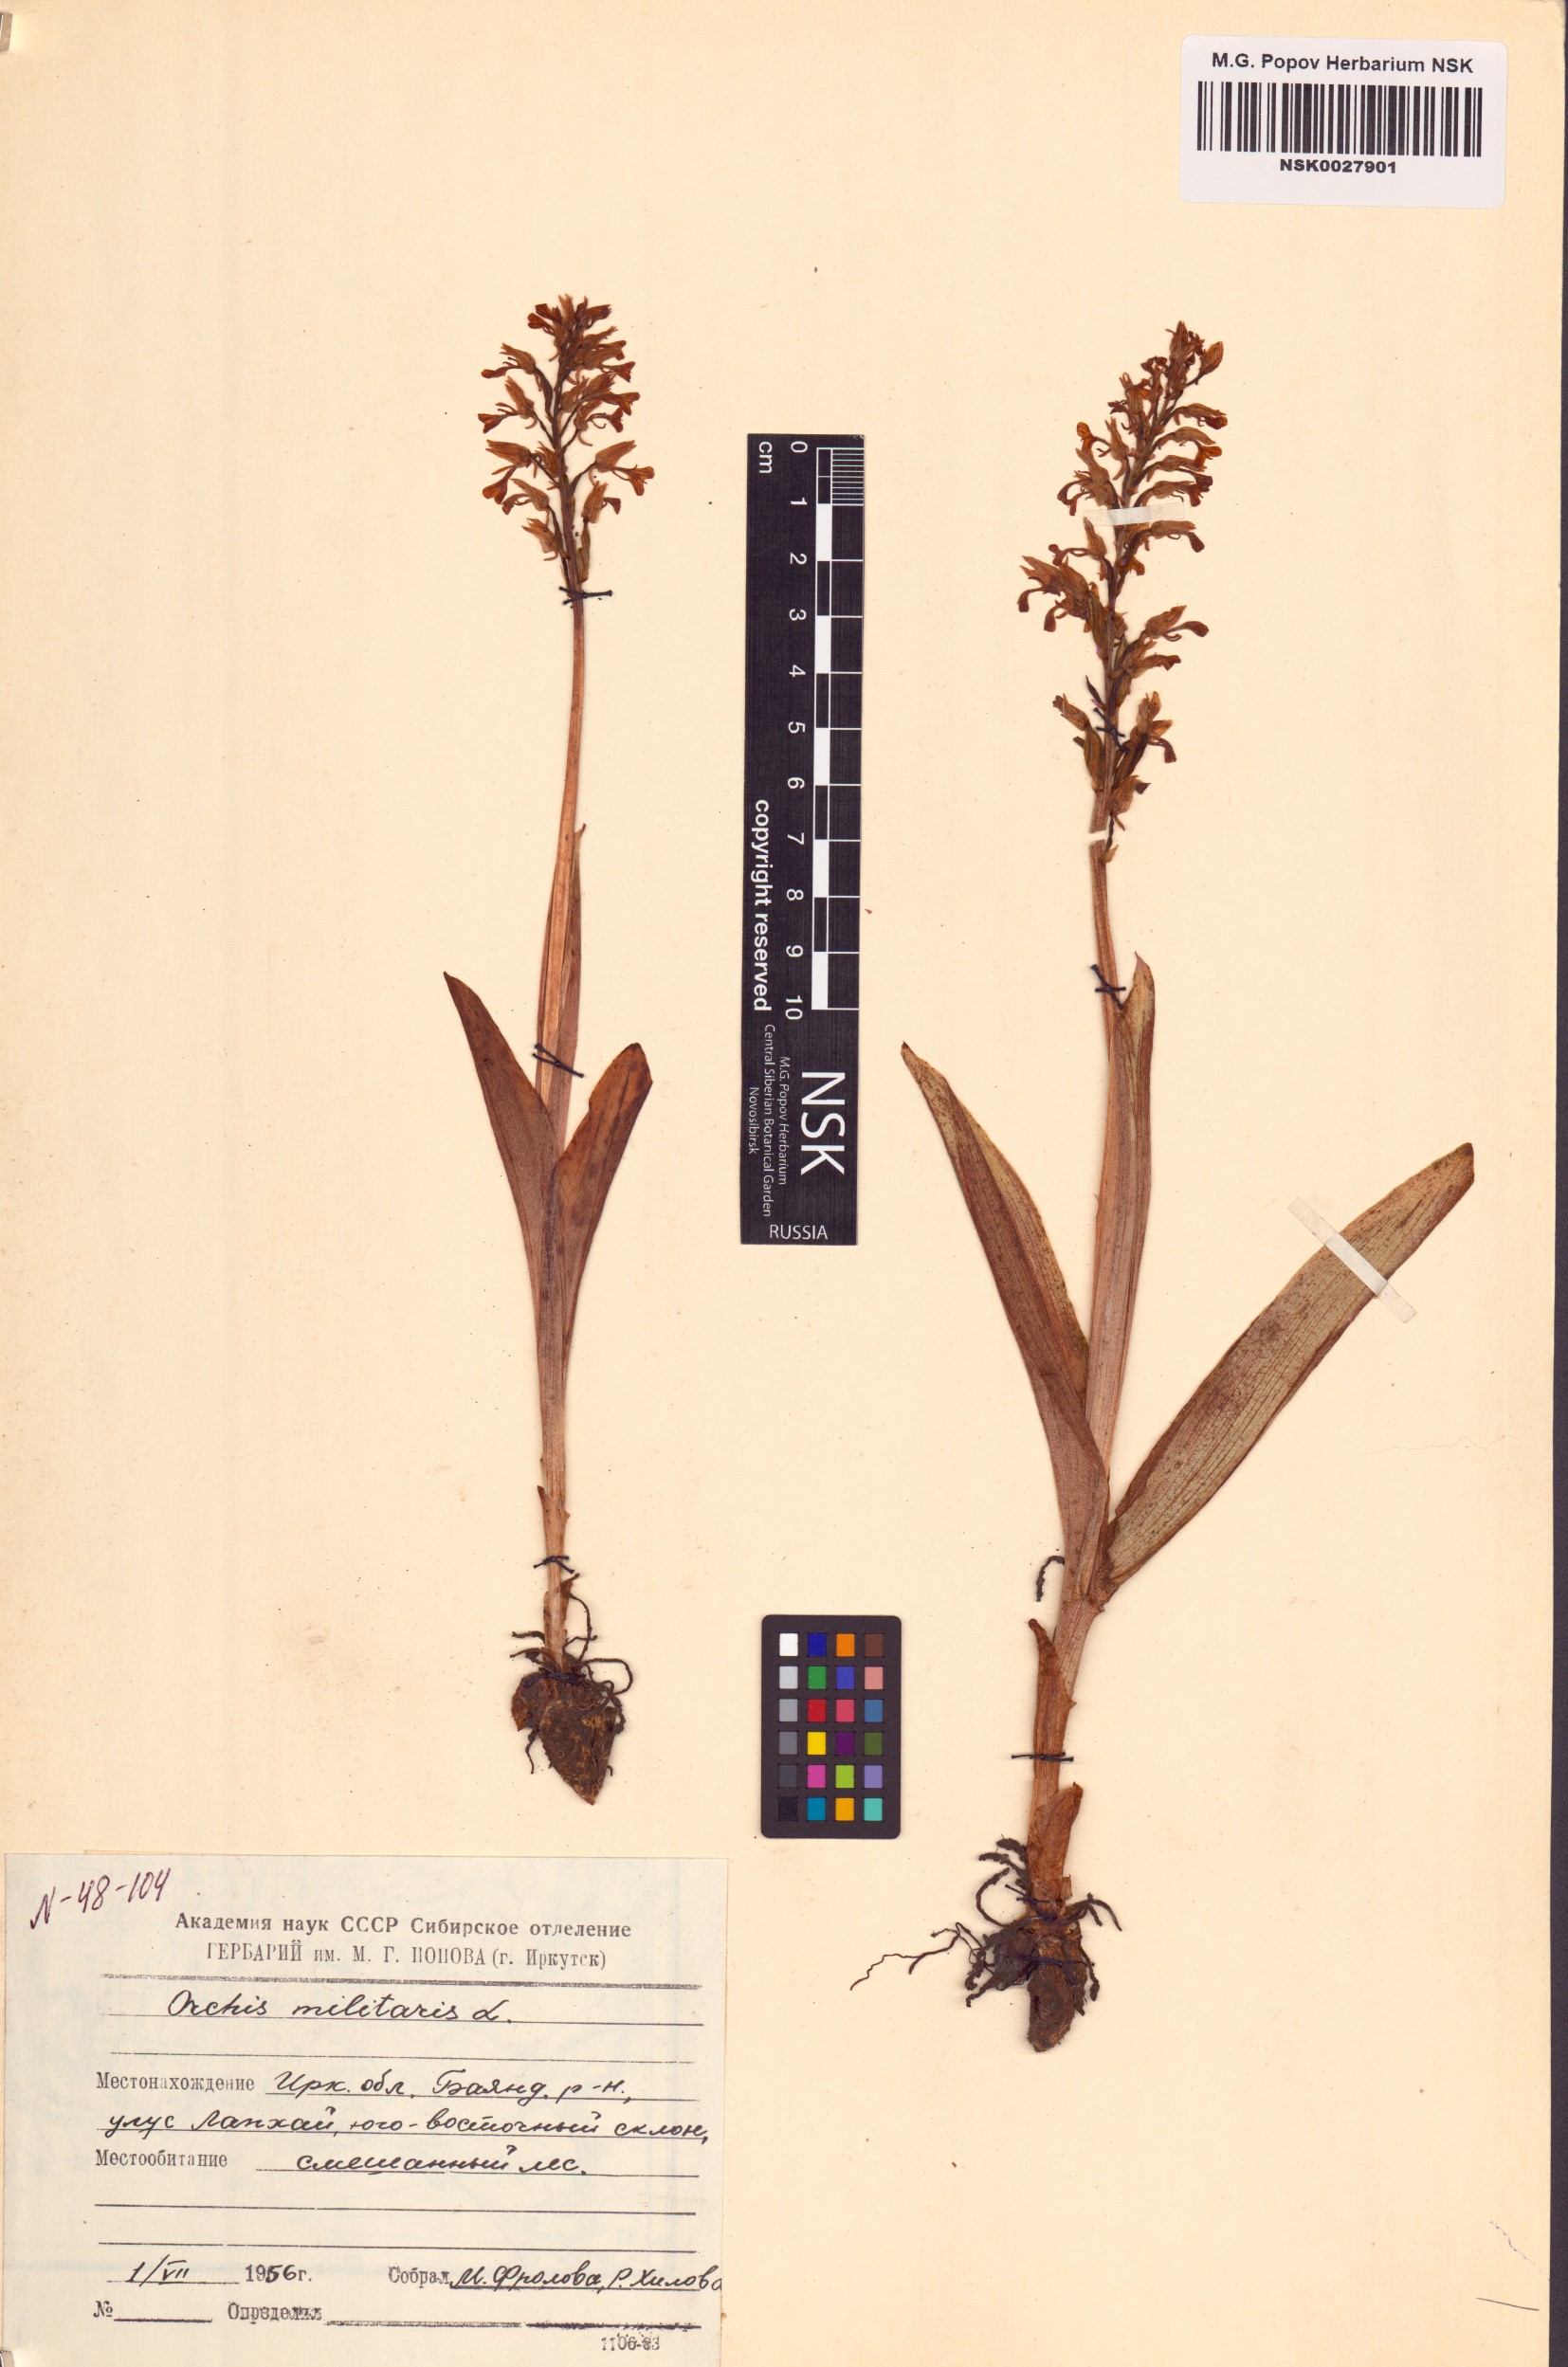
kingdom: Plantae
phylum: Tracheophyta
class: Liliopsida
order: Asparagales
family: Orchidaceae
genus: Orchis
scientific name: Orchis militaris
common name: Military orchid
